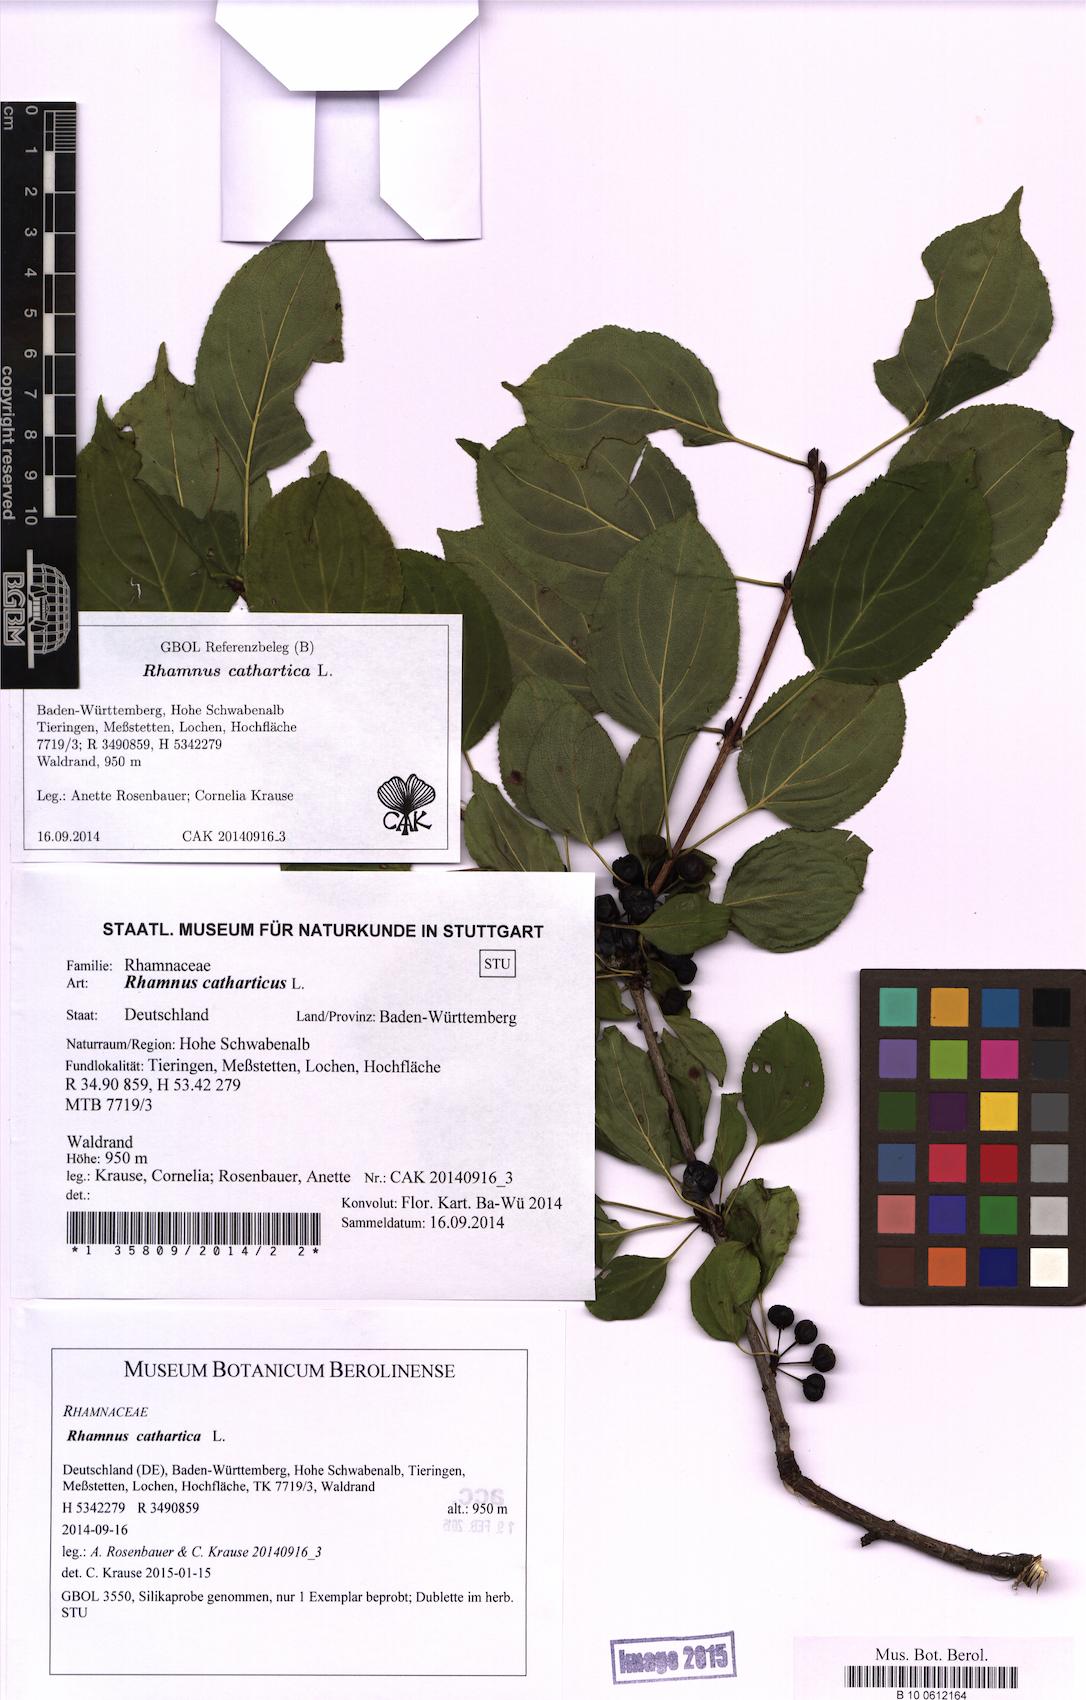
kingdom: Plantae
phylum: Tracheophyta
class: Magnoliopsida
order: Rosales
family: Rhamnaceae
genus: Rhamnus
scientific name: Rhamnus cathartica
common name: Common buckthorn
